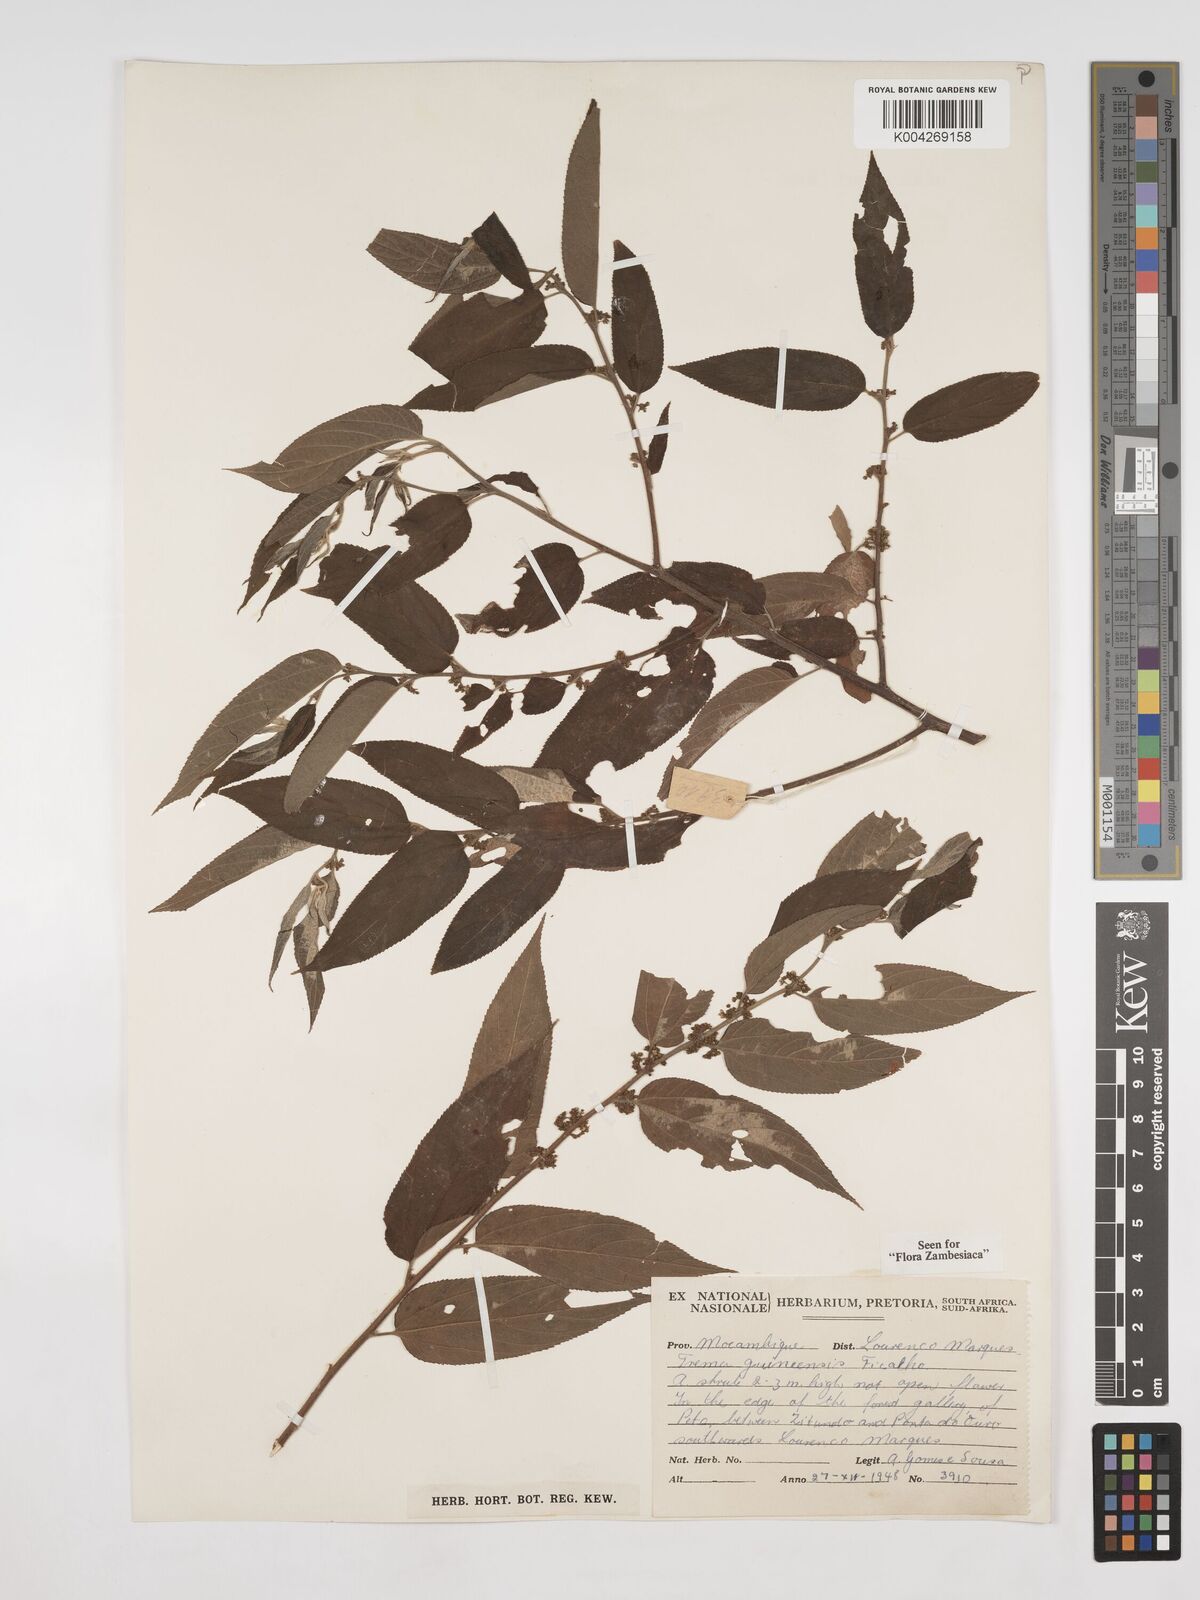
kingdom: Plantae
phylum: Tracheophyta
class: Magnoliopsida
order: Rosales
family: Cannabaceae
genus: Trema
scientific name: Trema orientale
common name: Indian charcoal tree
